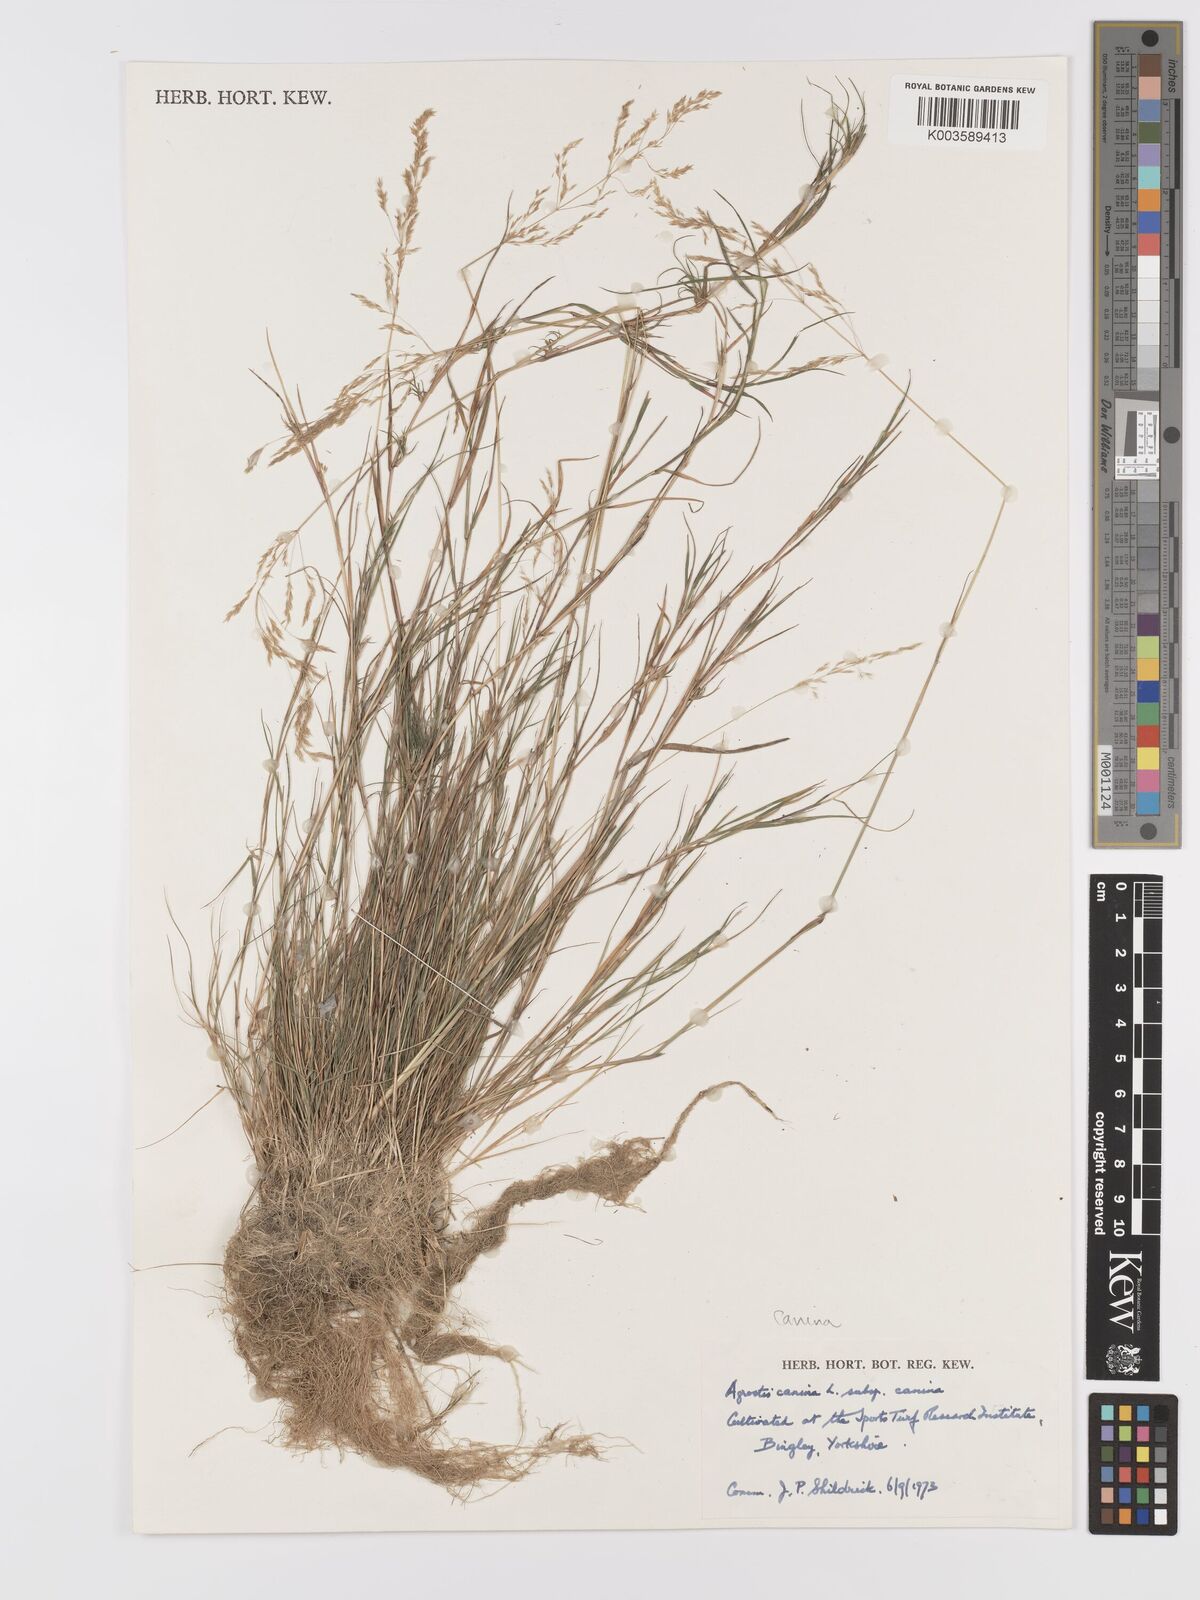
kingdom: Plantae
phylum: Tracheophyta
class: Liliopsida
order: Poales
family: Poaceae
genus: Agrostis
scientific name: Agrostis canina
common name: Velvet bent
